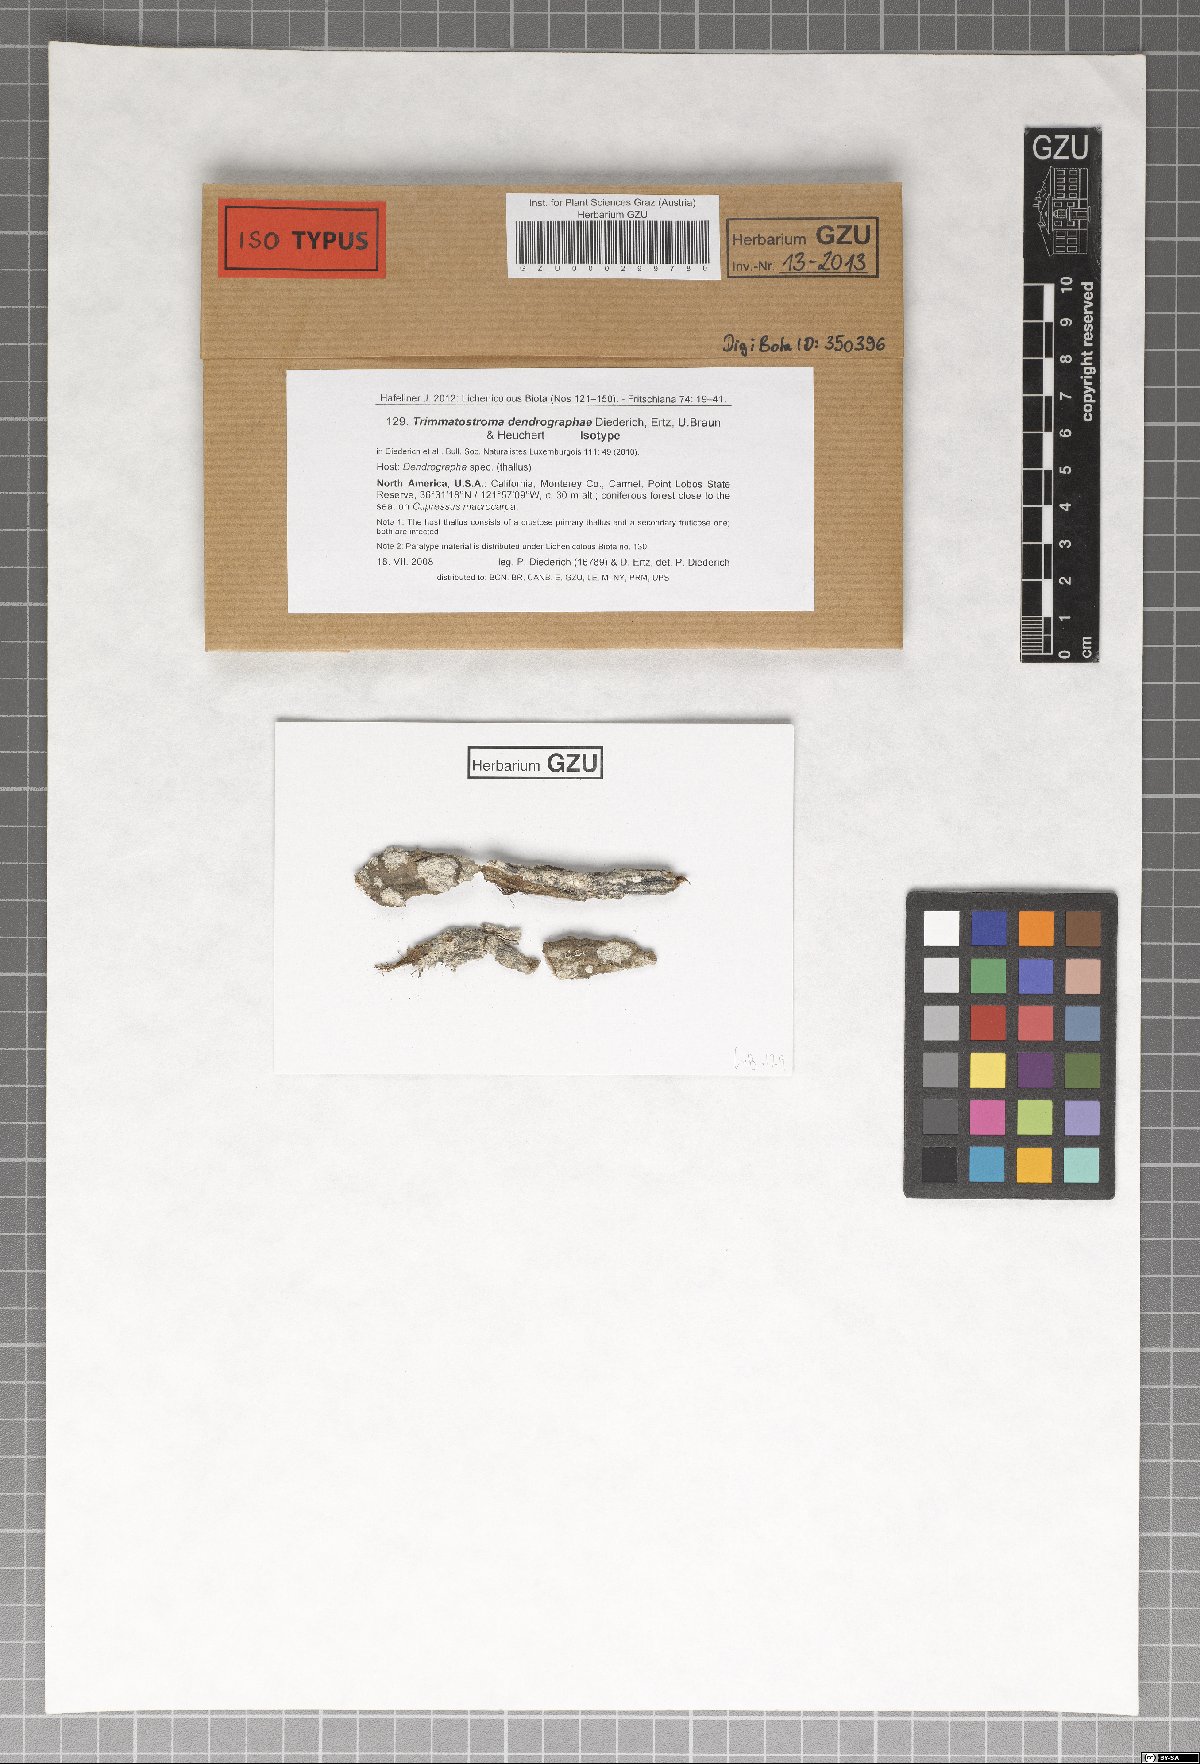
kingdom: Fungi
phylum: Ascomycota
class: Leotiomycetes
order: Helotiales
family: Mollisiaceae
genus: Trimmatostroma
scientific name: Trimmatostroma dendrographae
